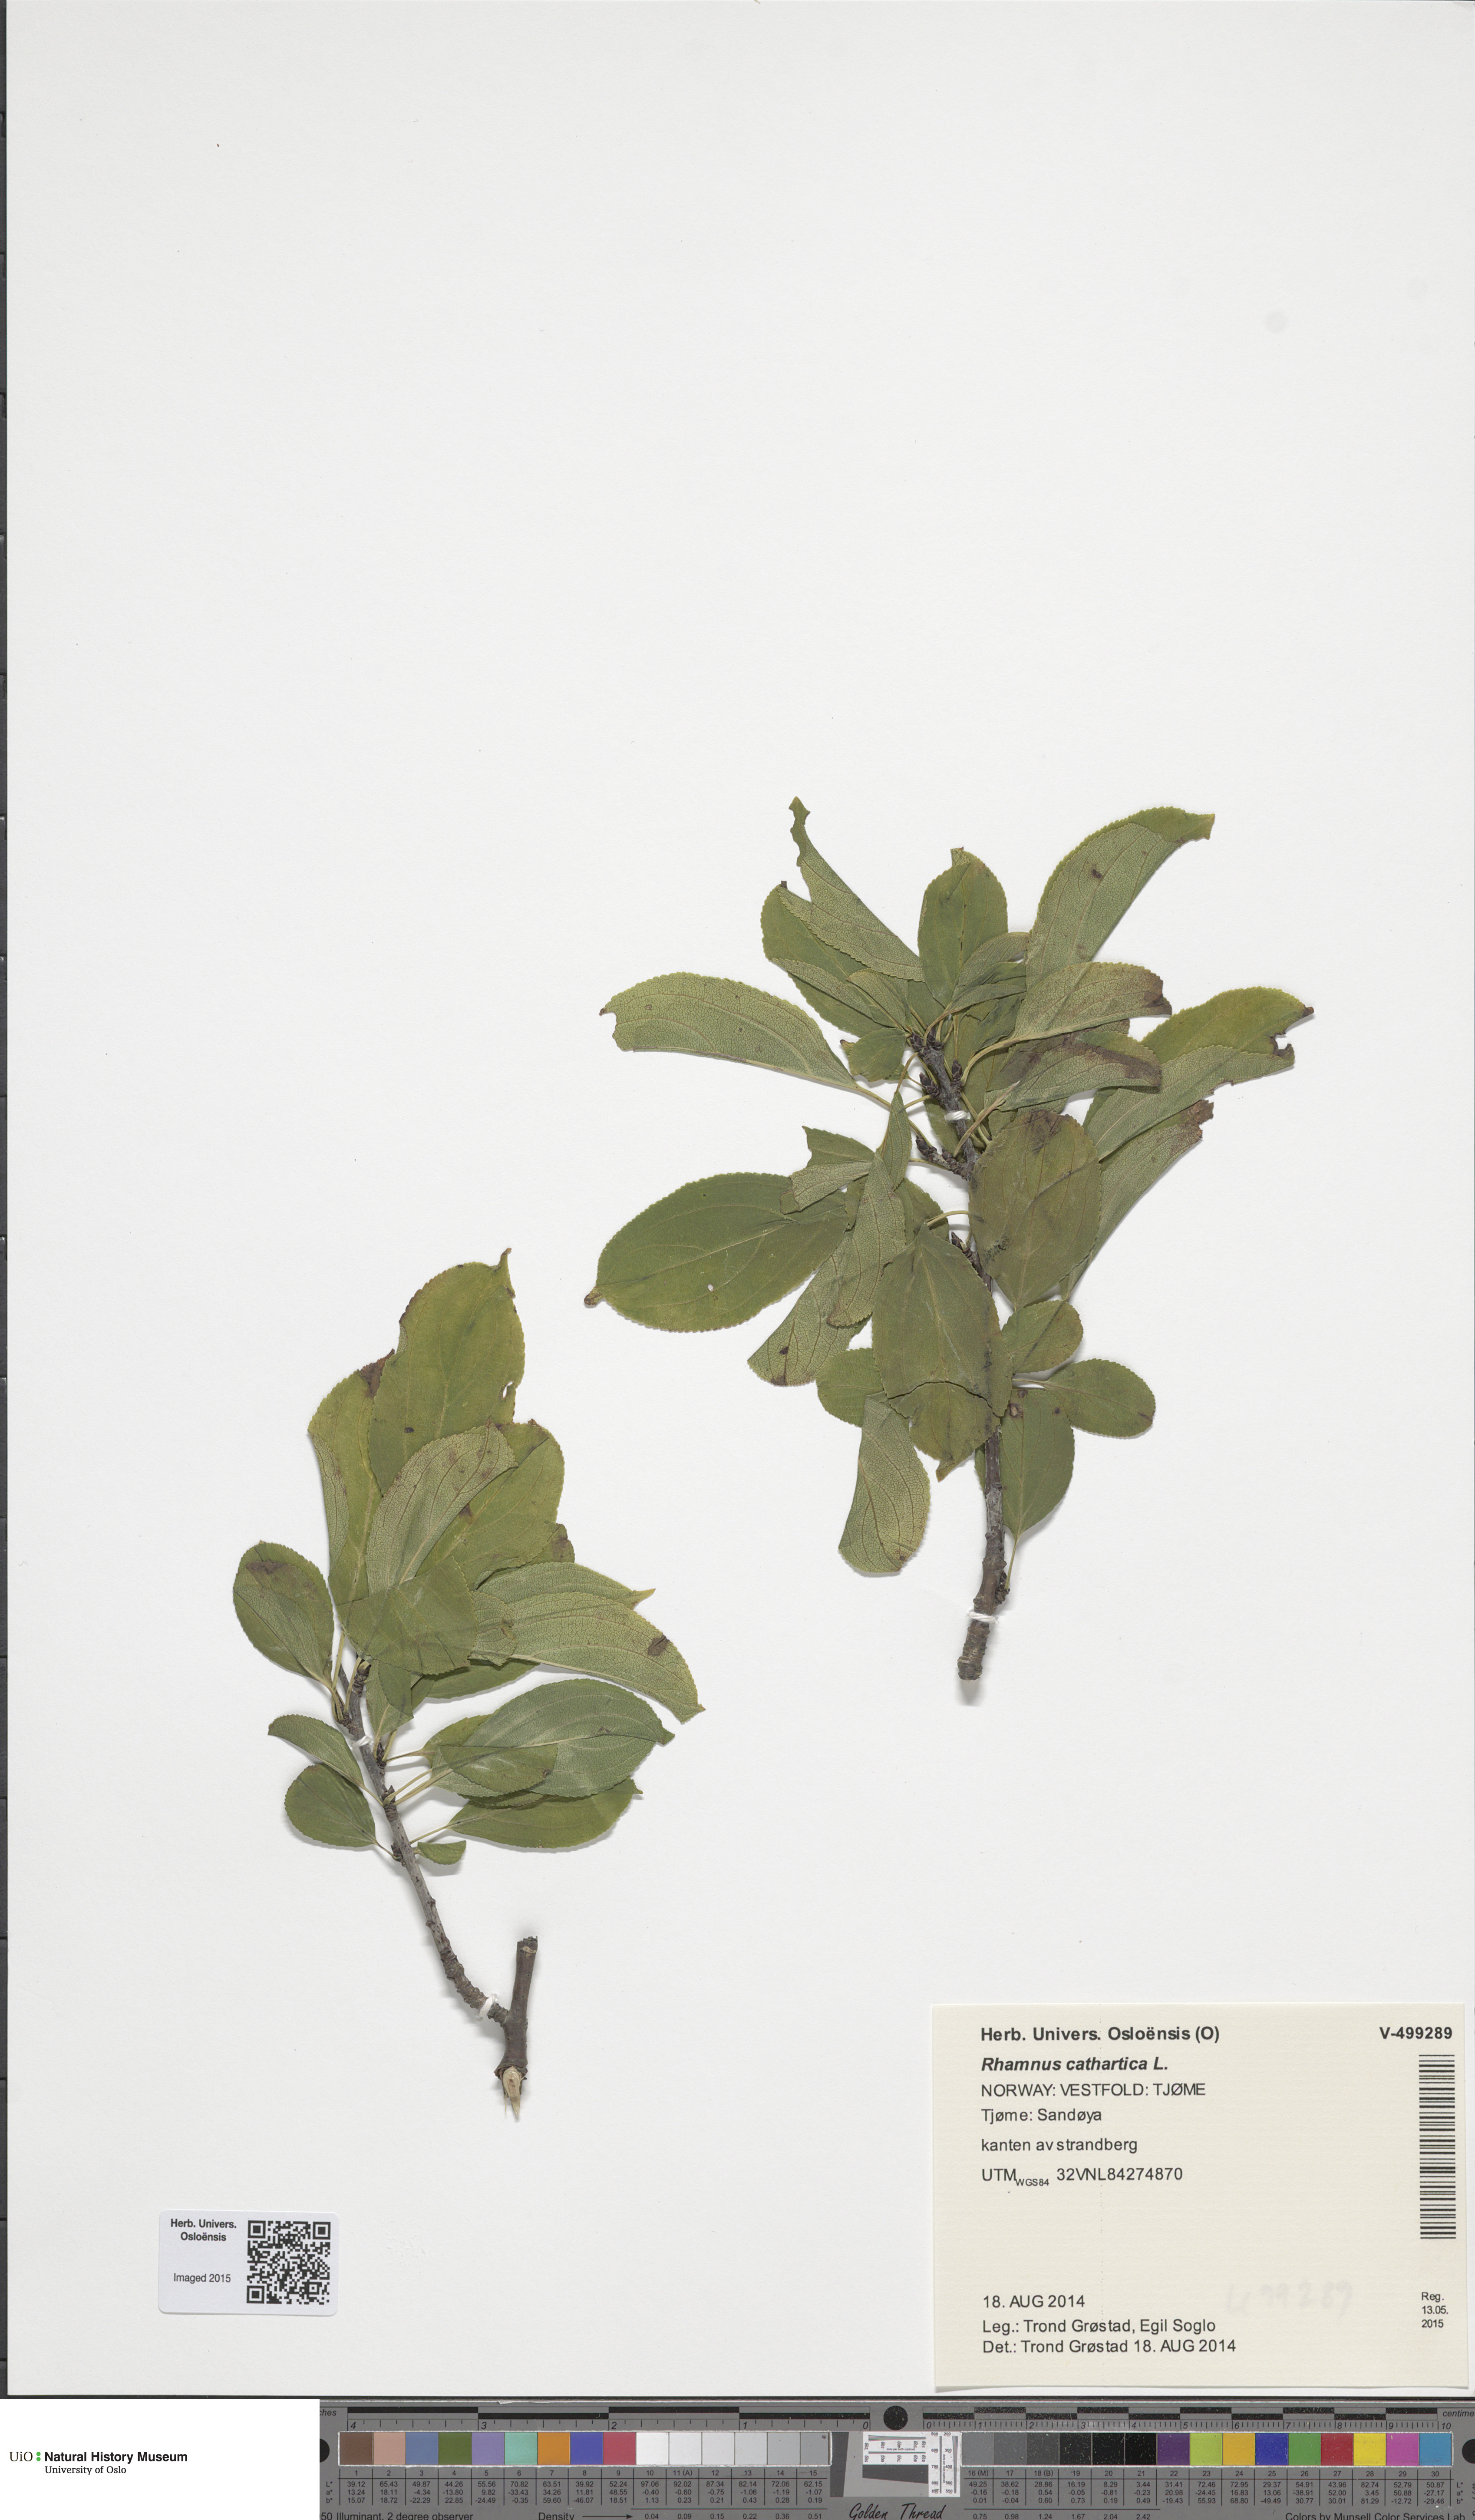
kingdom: Plantae
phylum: Tracheophyta
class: Magnoliopsida
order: Rosales
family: Rhamnaceae
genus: Rhamnus
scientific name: Rhamnus cathartica
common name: Common buckthorn
